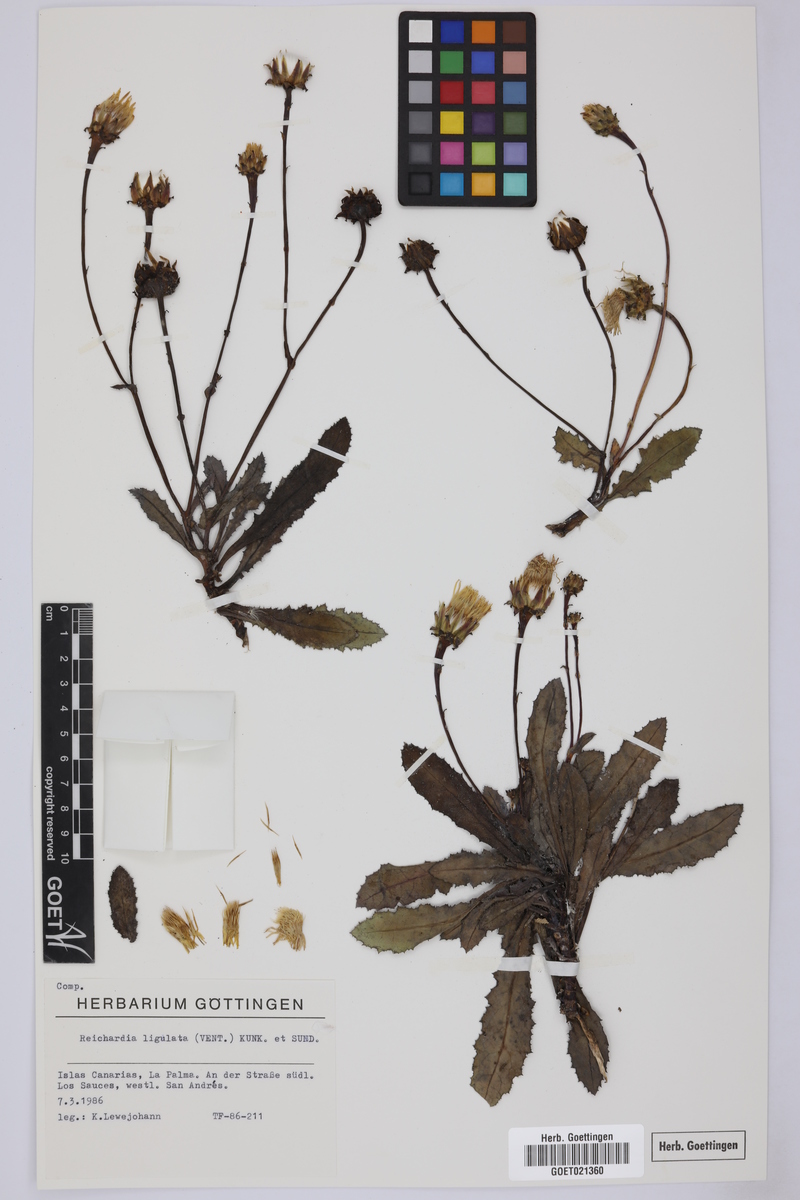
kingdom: Plantae
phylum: Tracheophyta
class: Magnoliopsida
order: Asterales
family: Asteraceae
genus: Reichardia
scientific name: Reichardia ligulata
